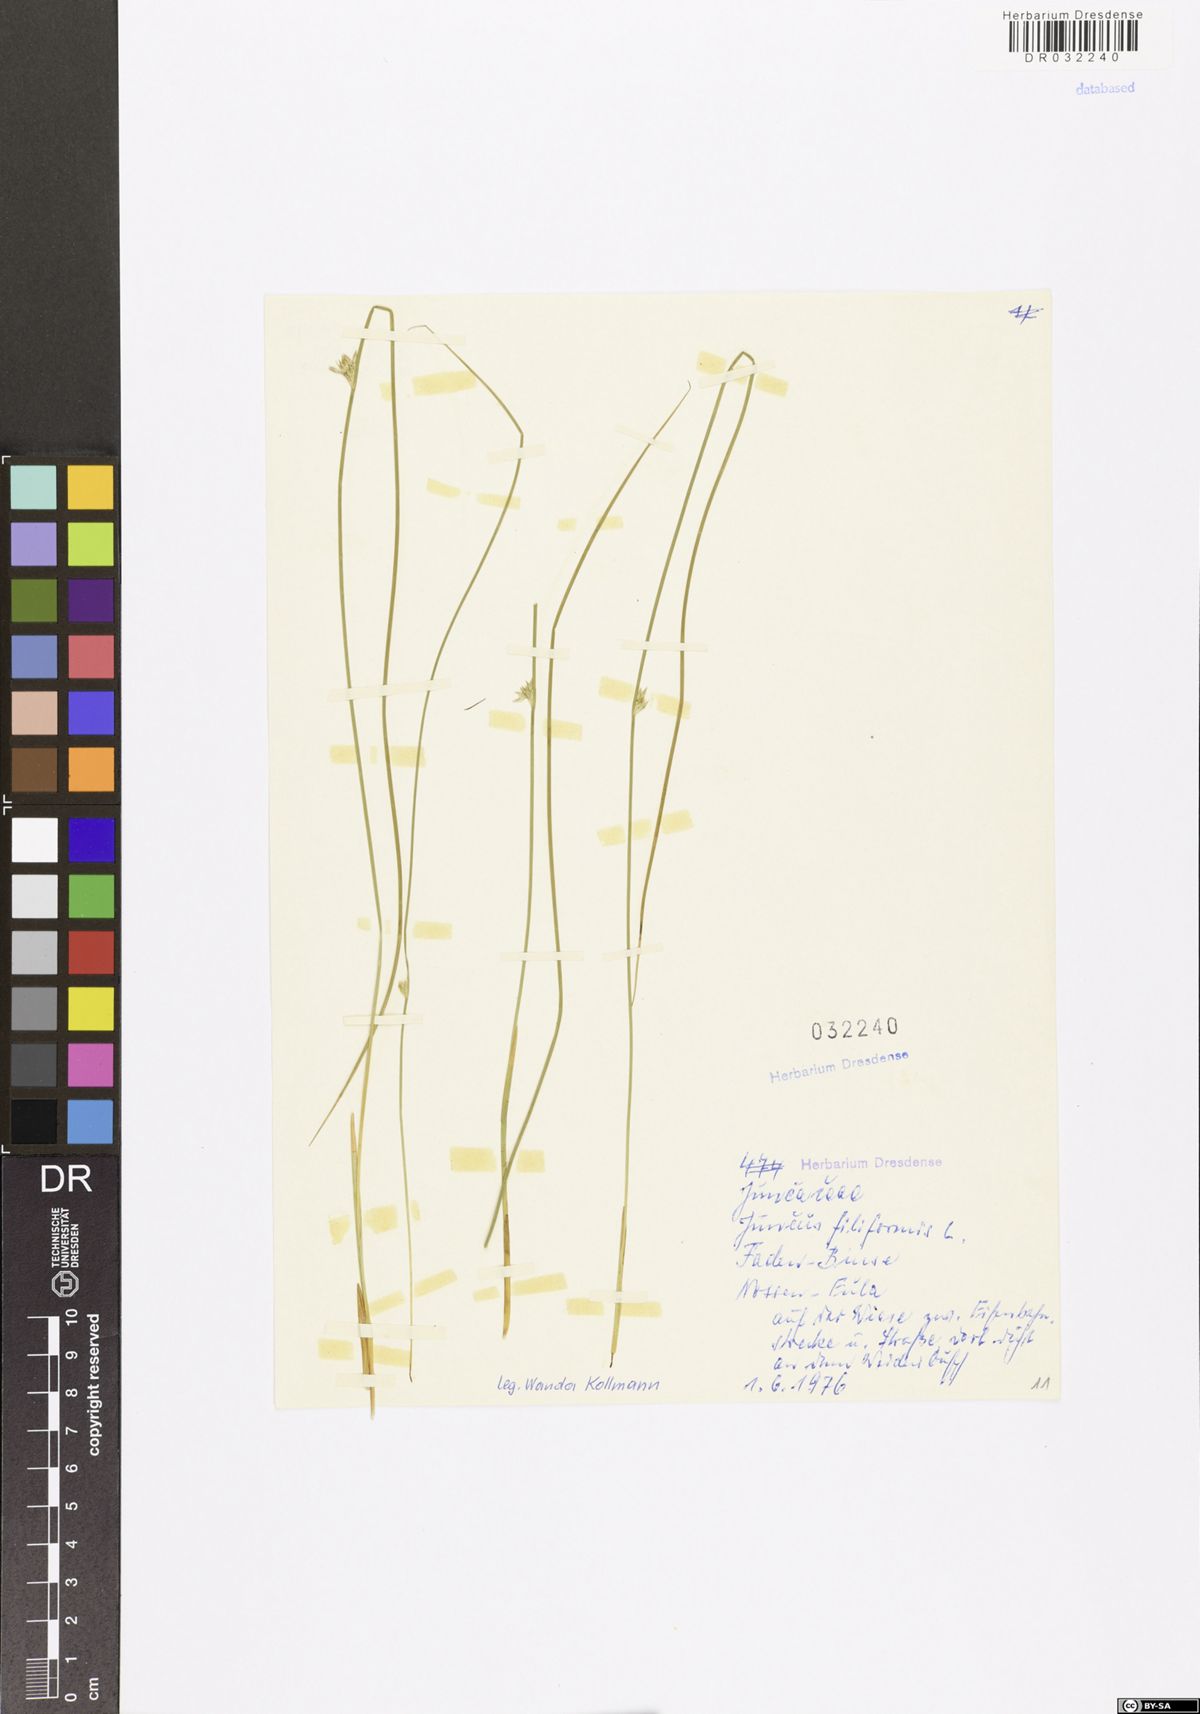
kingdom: Plantae
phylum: Tracheophyta
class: Liliopsida
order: Poales
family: Juncaceae
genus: Juncus
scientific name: Juncus filiformis
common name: Thread rush
